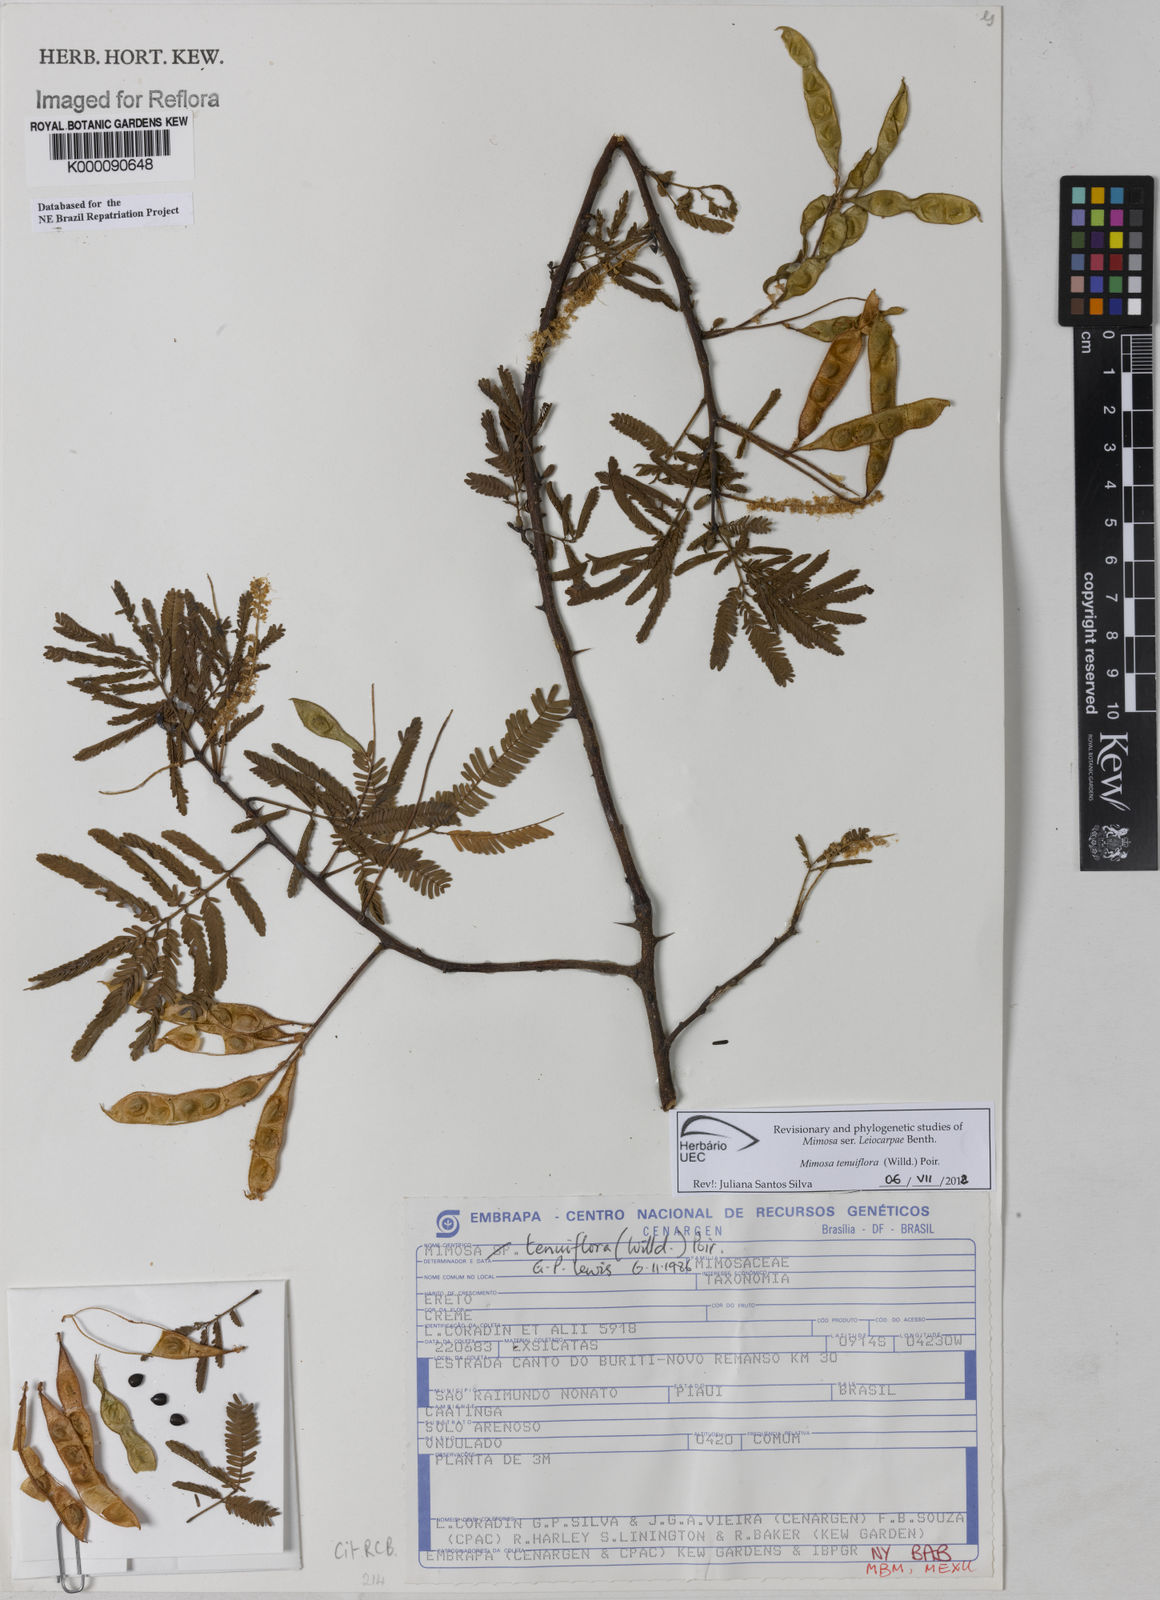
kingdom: Plantae
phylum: Tracheophyta
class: Magnoliopsida
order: Fabales
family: Fabaceae
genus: Mimosa
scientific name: Mimosa tenuiflora
